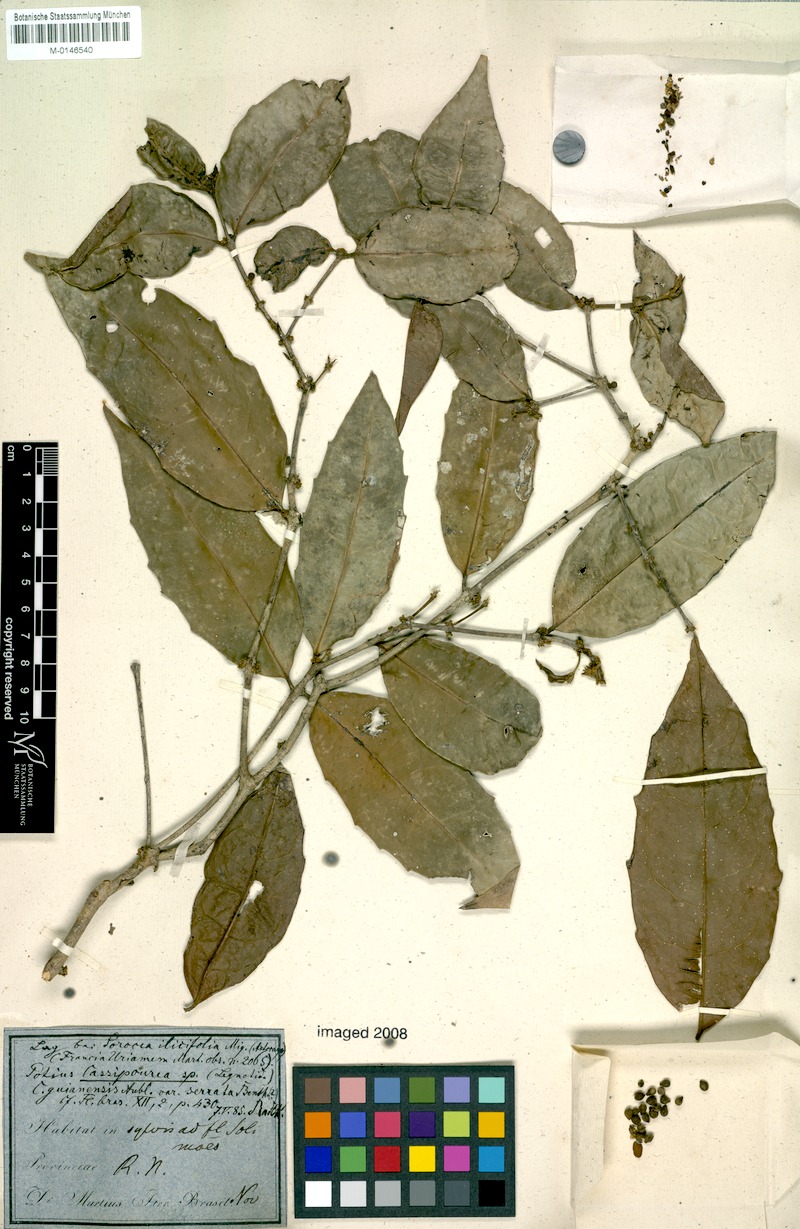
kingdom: Plantae
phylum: Tracheophyta
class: Magnoliopsida
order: Malpighiales
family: Rhizophoraceae
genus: Cassipourea
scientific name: Cassipourea guianensis
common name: Bastard waterwood
